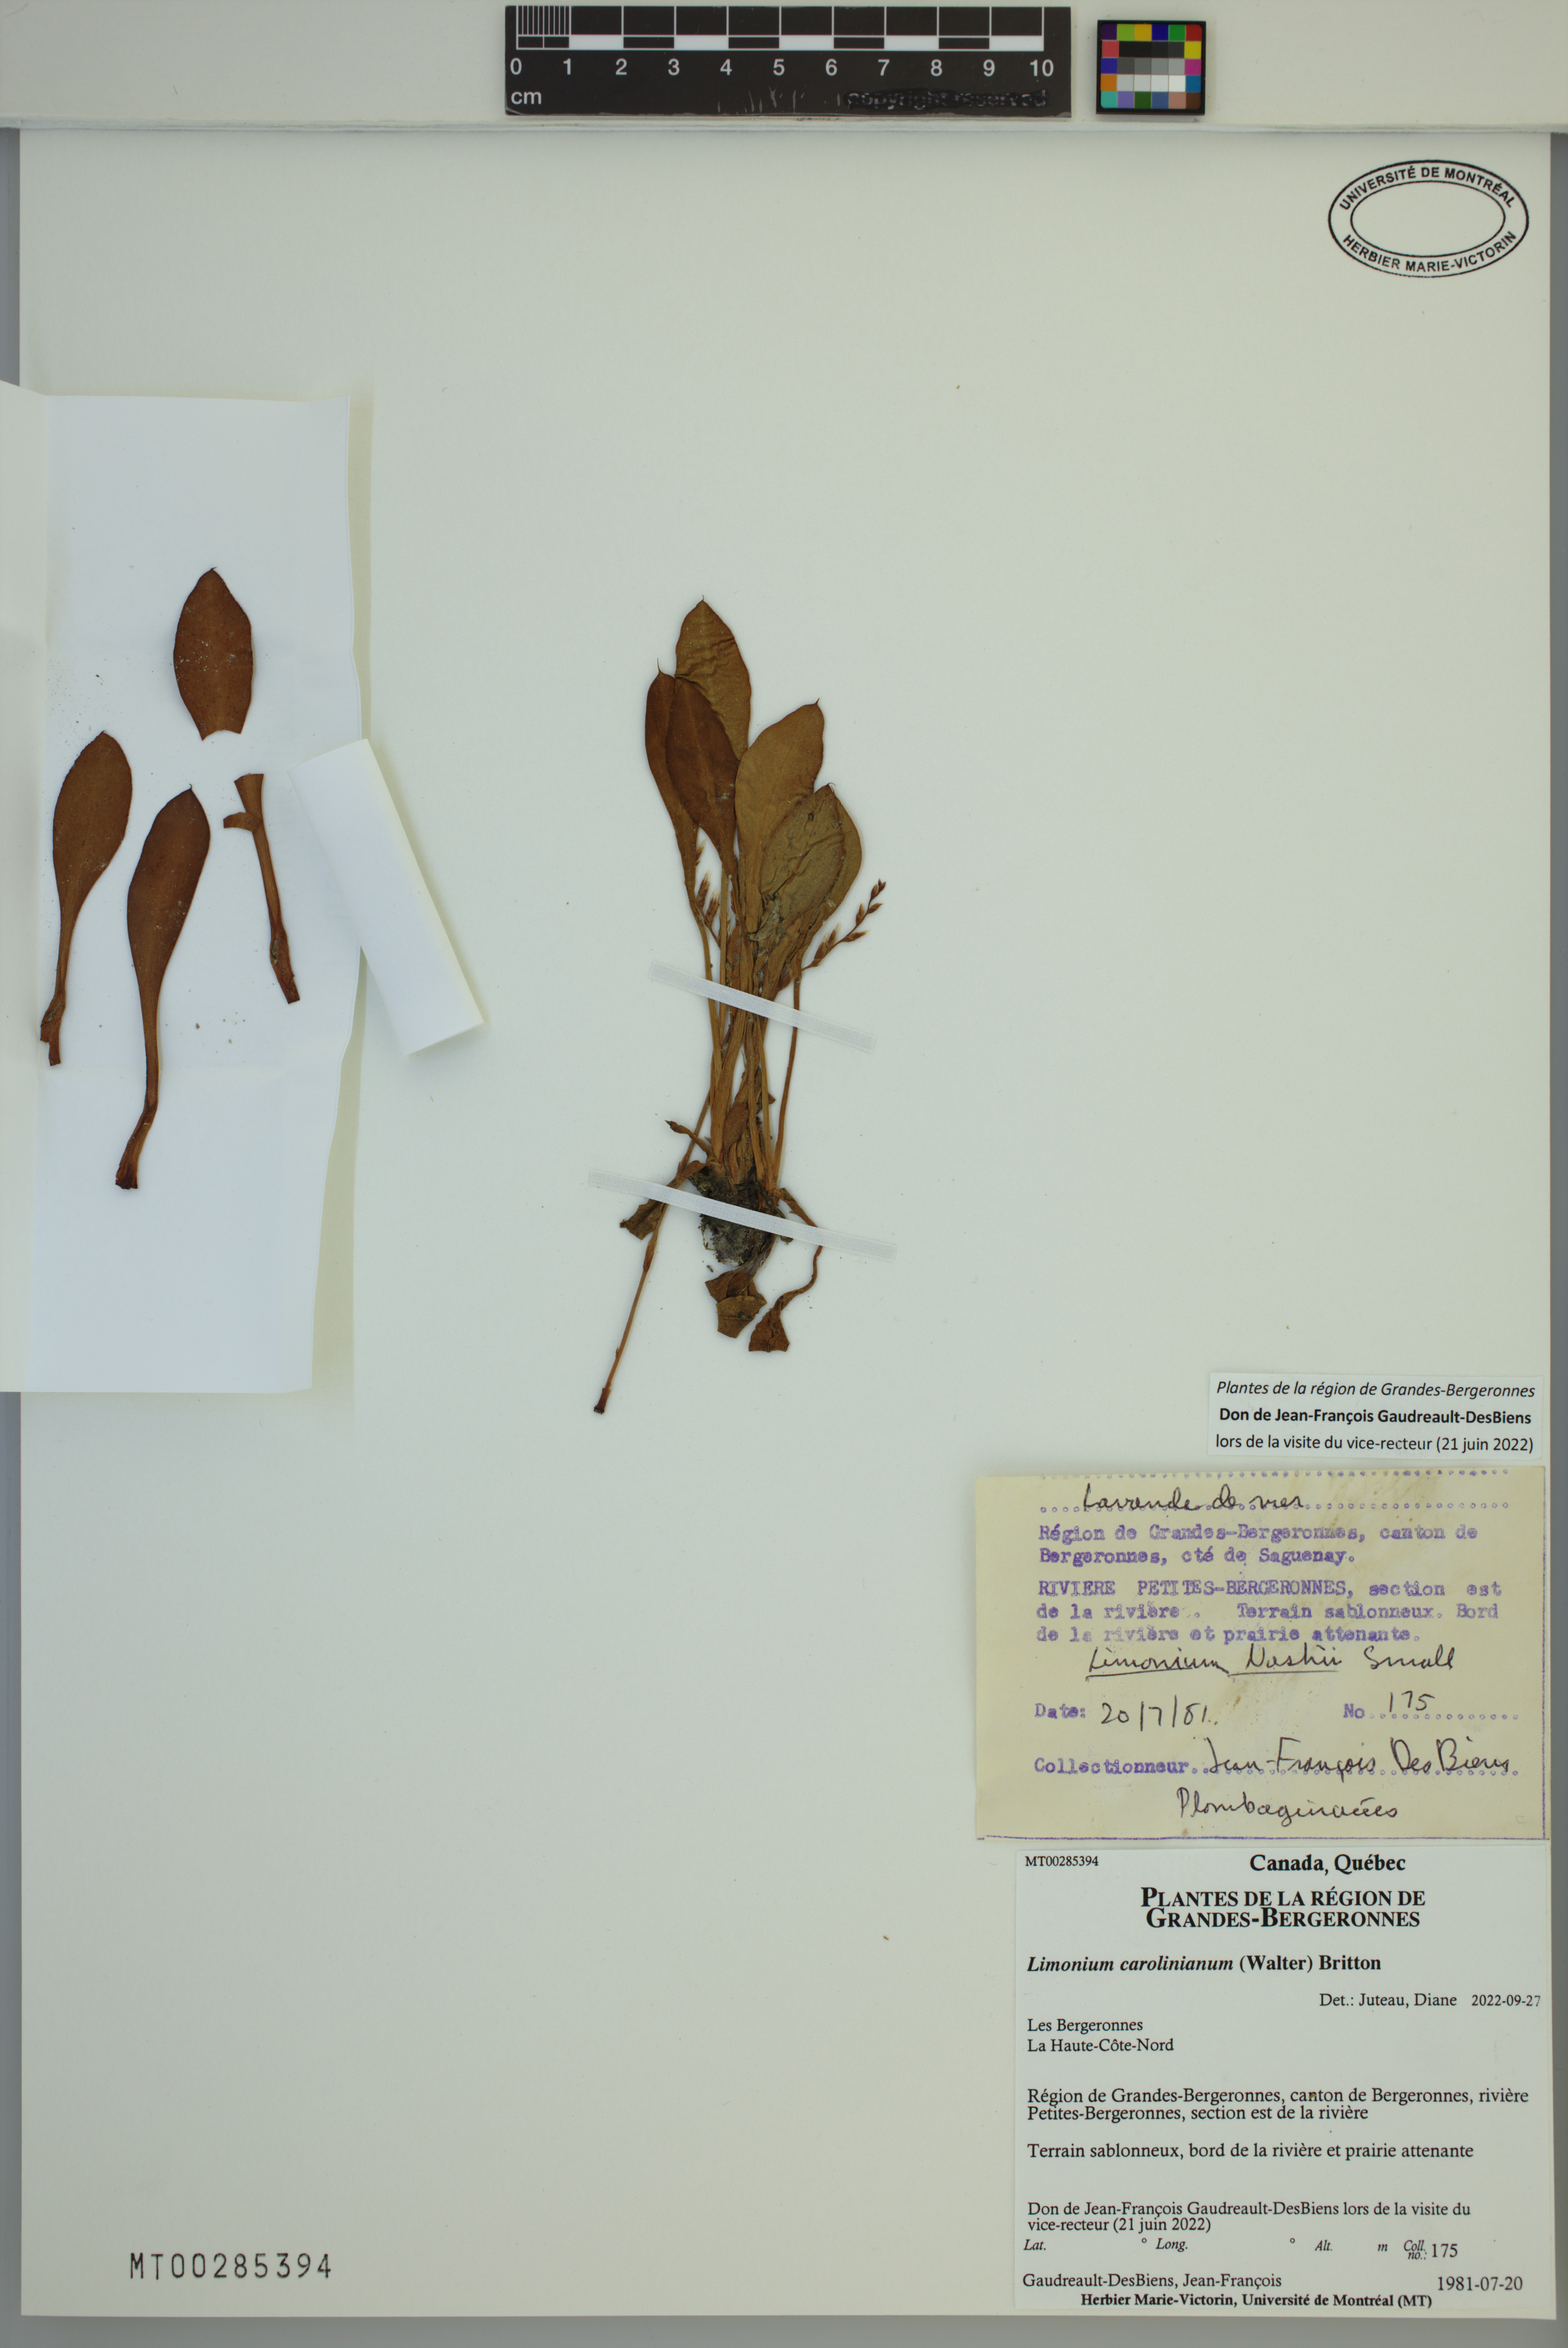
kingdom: Plantae
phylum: Tracheophyta
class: Magnoliopsida
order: Caryophyllales
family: Plumbaginaceae
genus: Limonium
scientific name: Limonium carolinianum
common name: Carolina sea lavender
